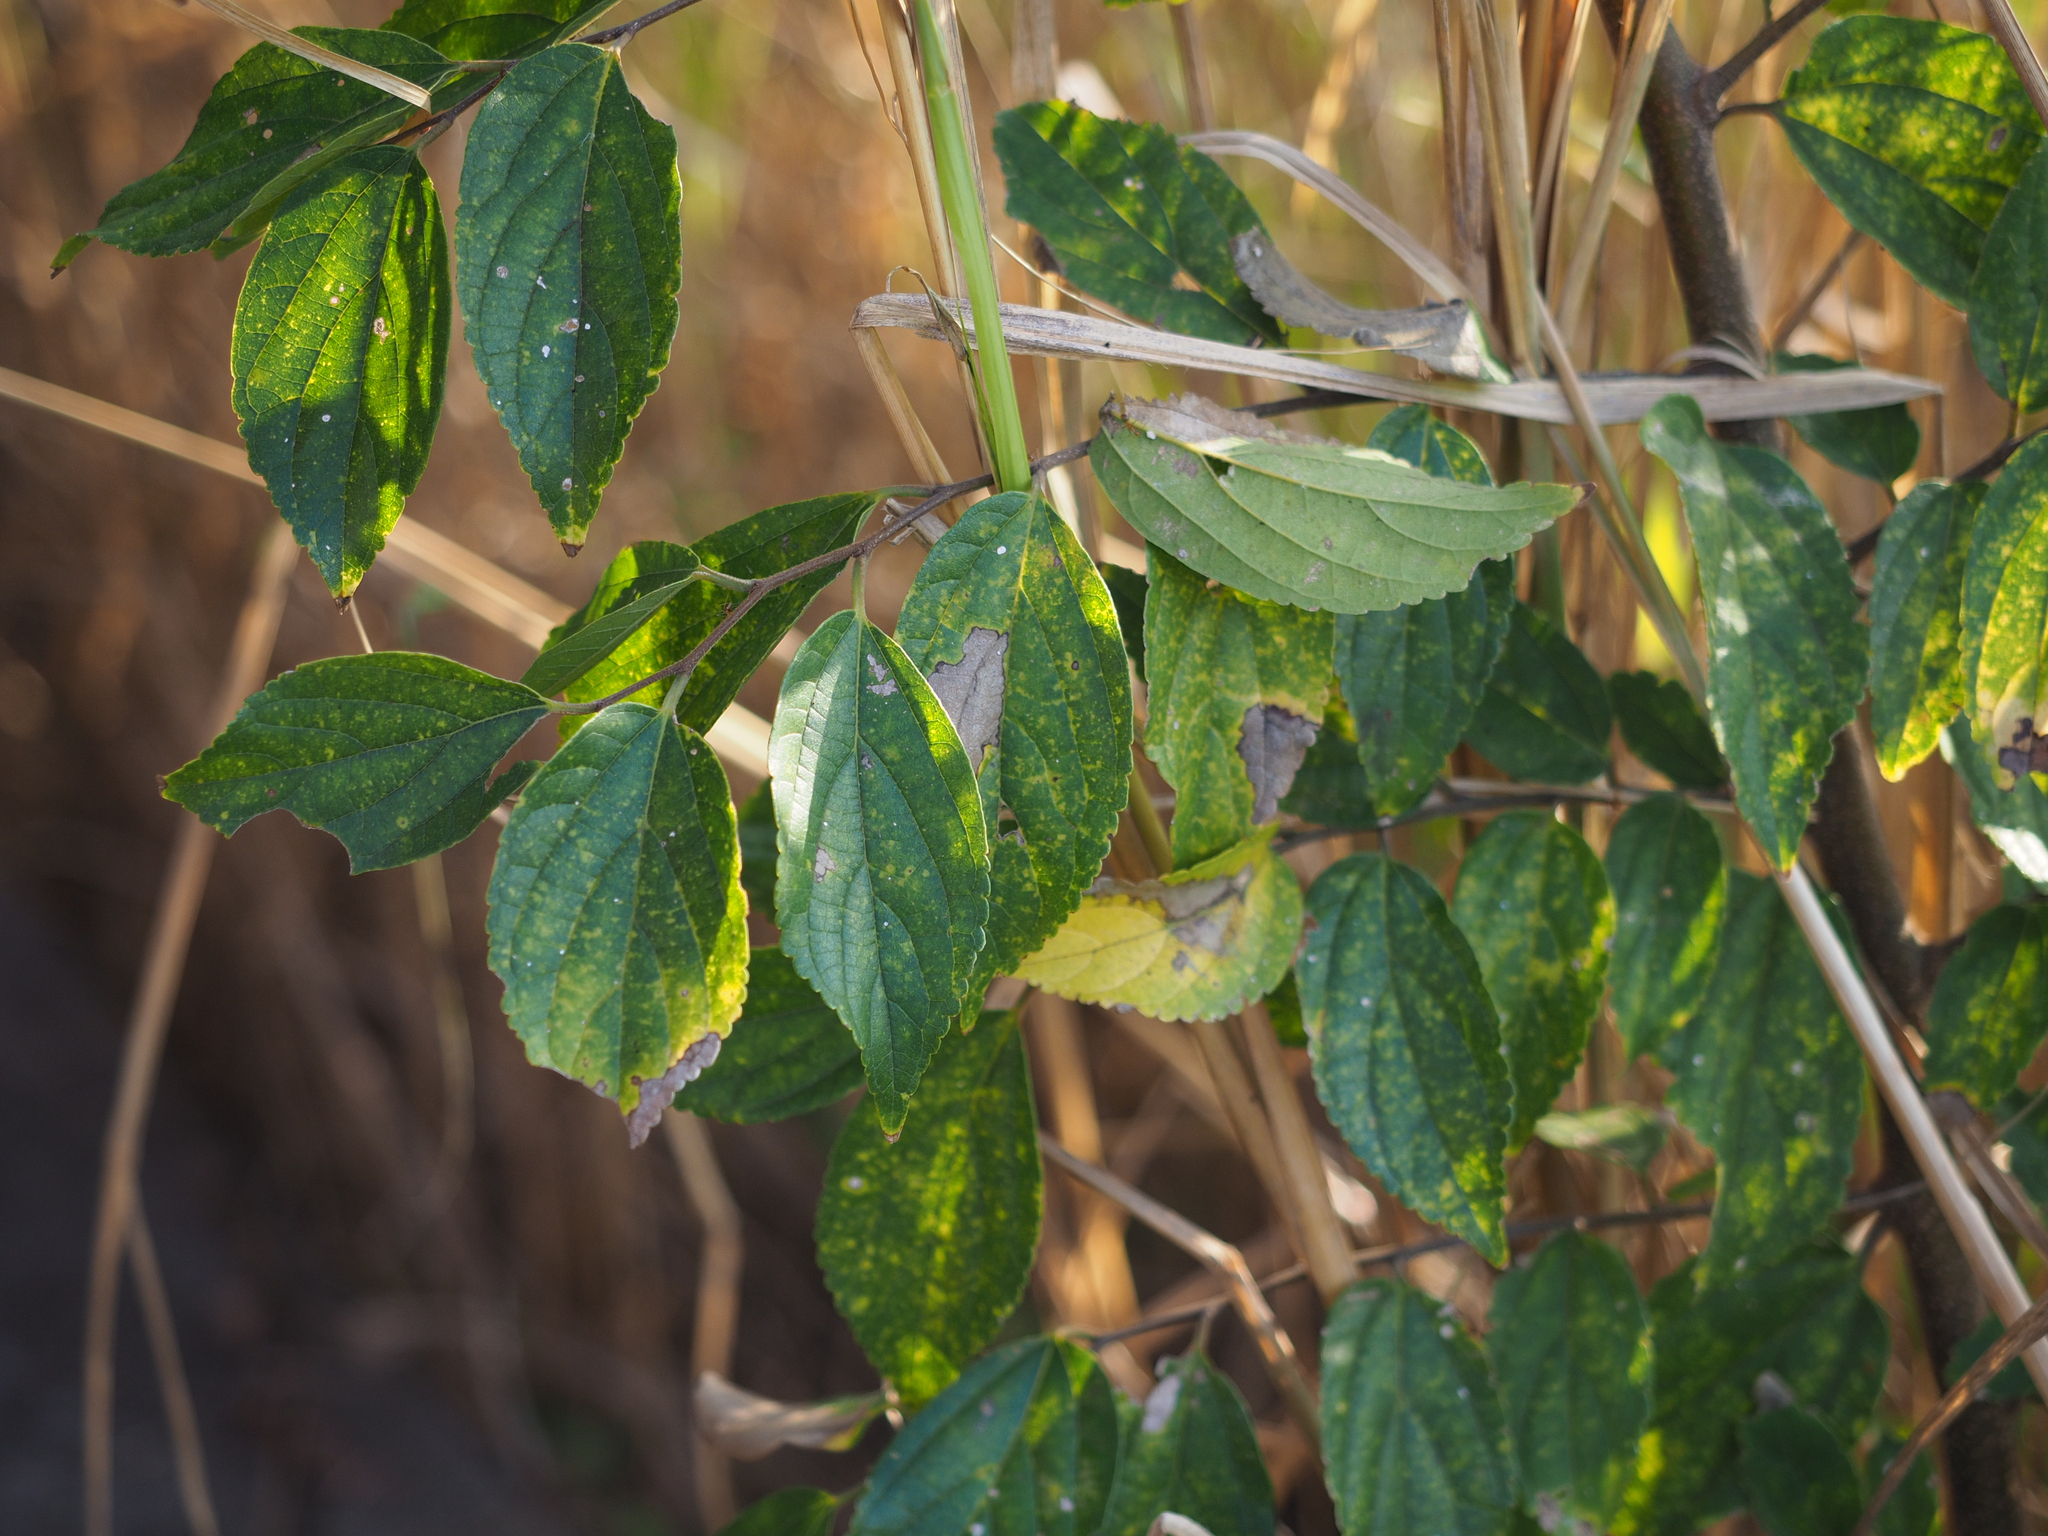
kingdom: Plantae
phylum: Tracheophyta
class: Magnoliopsida
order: Rosales
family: Cannabaceae
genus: Celtis
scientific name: Celtis sinensis
